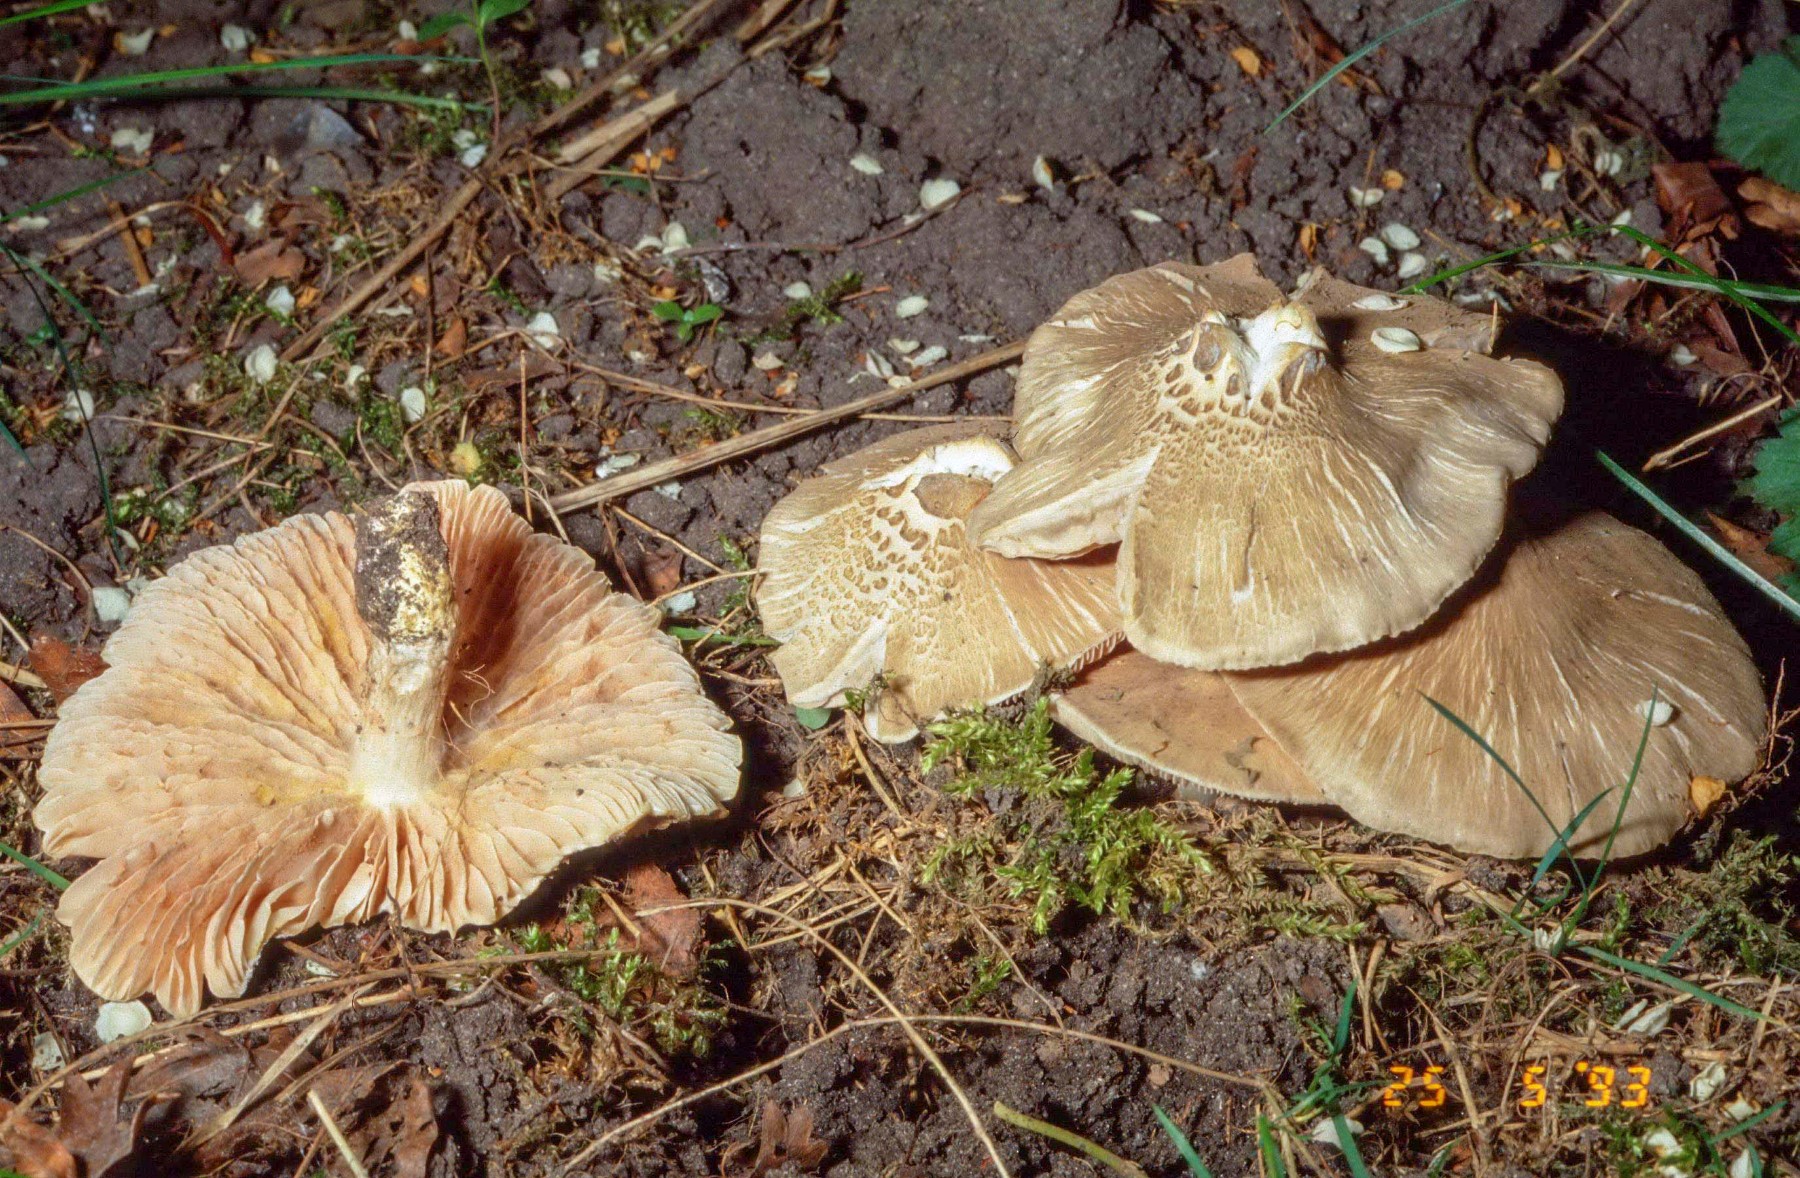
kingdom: Fungi
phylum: Basidiomycota
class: Agaricomycetes
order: Agaricales
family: Entolomataceae
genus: Entoloma
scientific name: Entoloma clypeatum
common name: flammet rødblad
